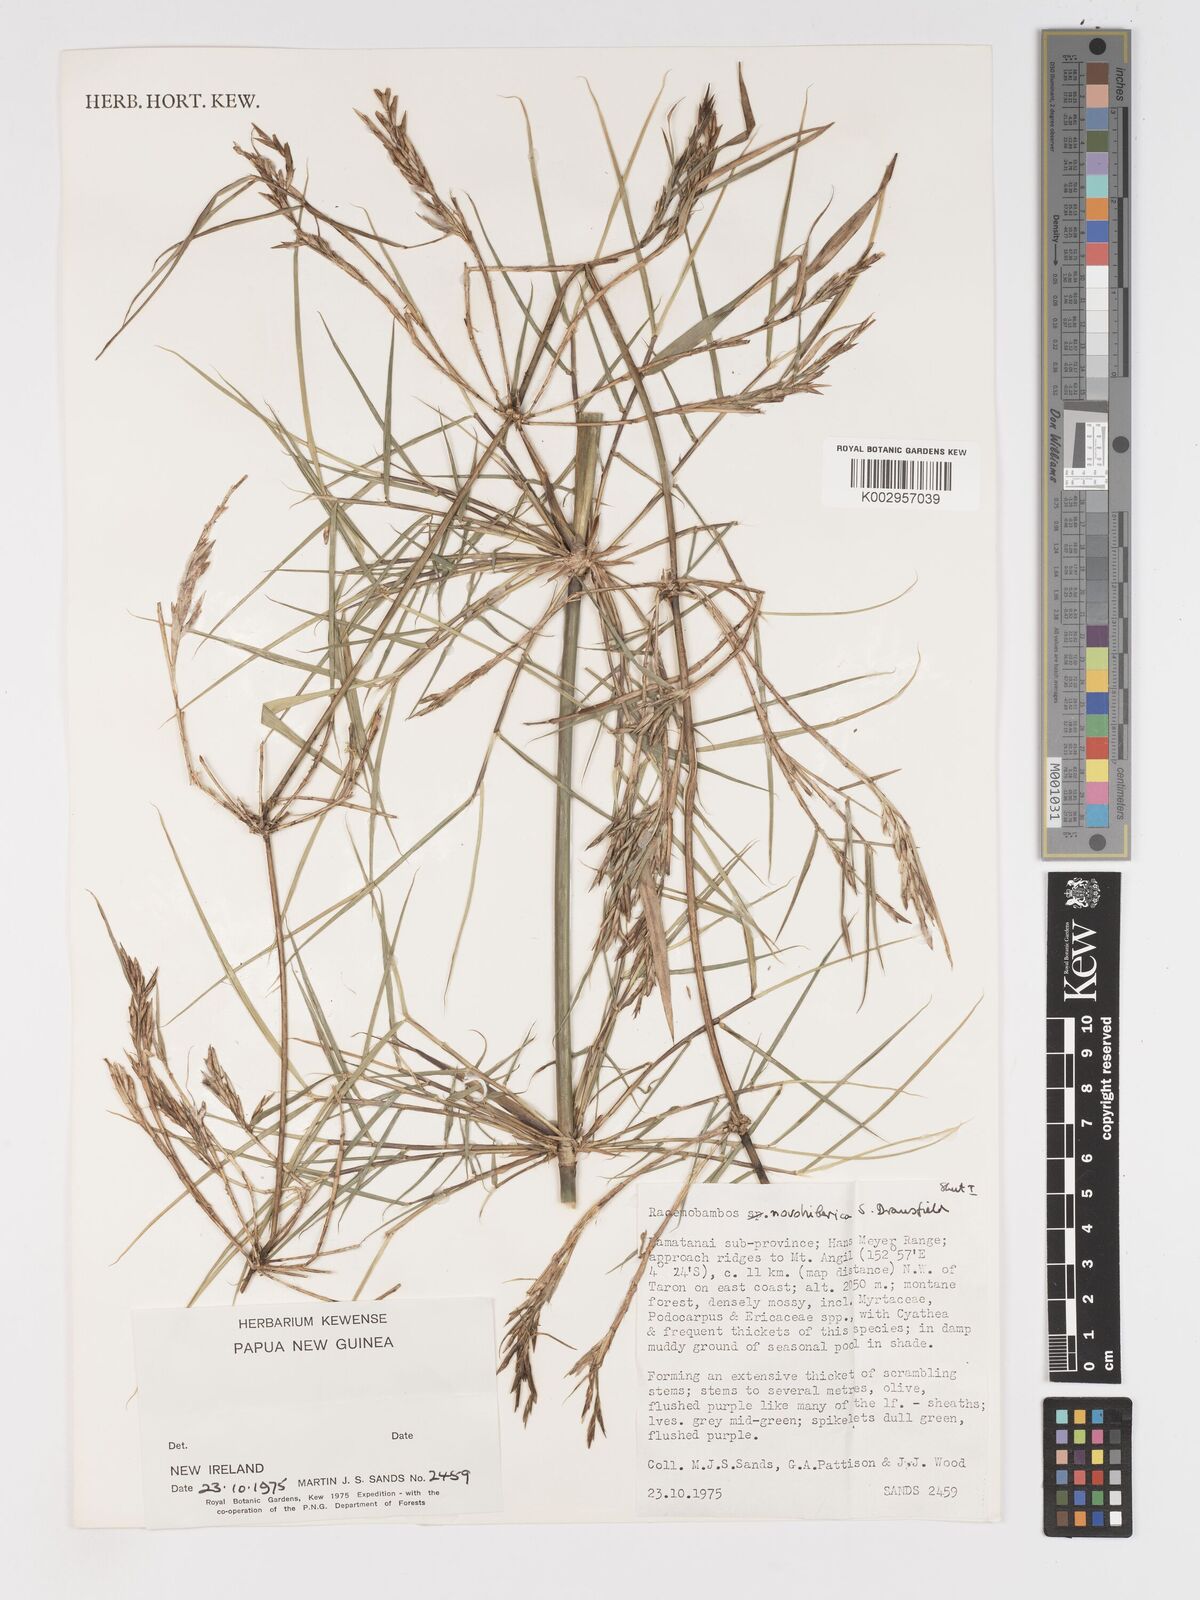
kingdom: Plantae
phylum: Tracheophyta
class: Liliopsida
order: Poales
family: Poaceae
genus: Racemobambos
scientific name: Racemobambos novohibernica
